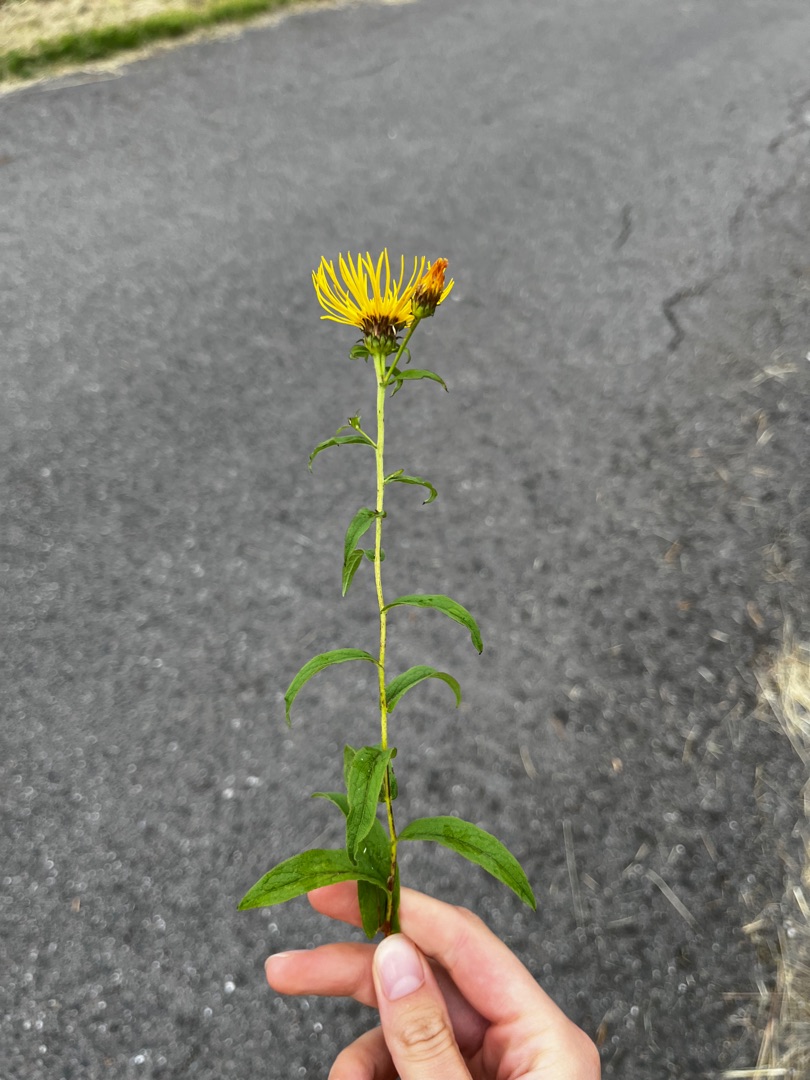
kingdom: Plantae
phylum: Tracheophyta
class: Magnoliopsida
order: Asterales
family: Asteraceae
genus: Pentanema
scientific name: Pentanema salicinum
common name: Pile-alant
